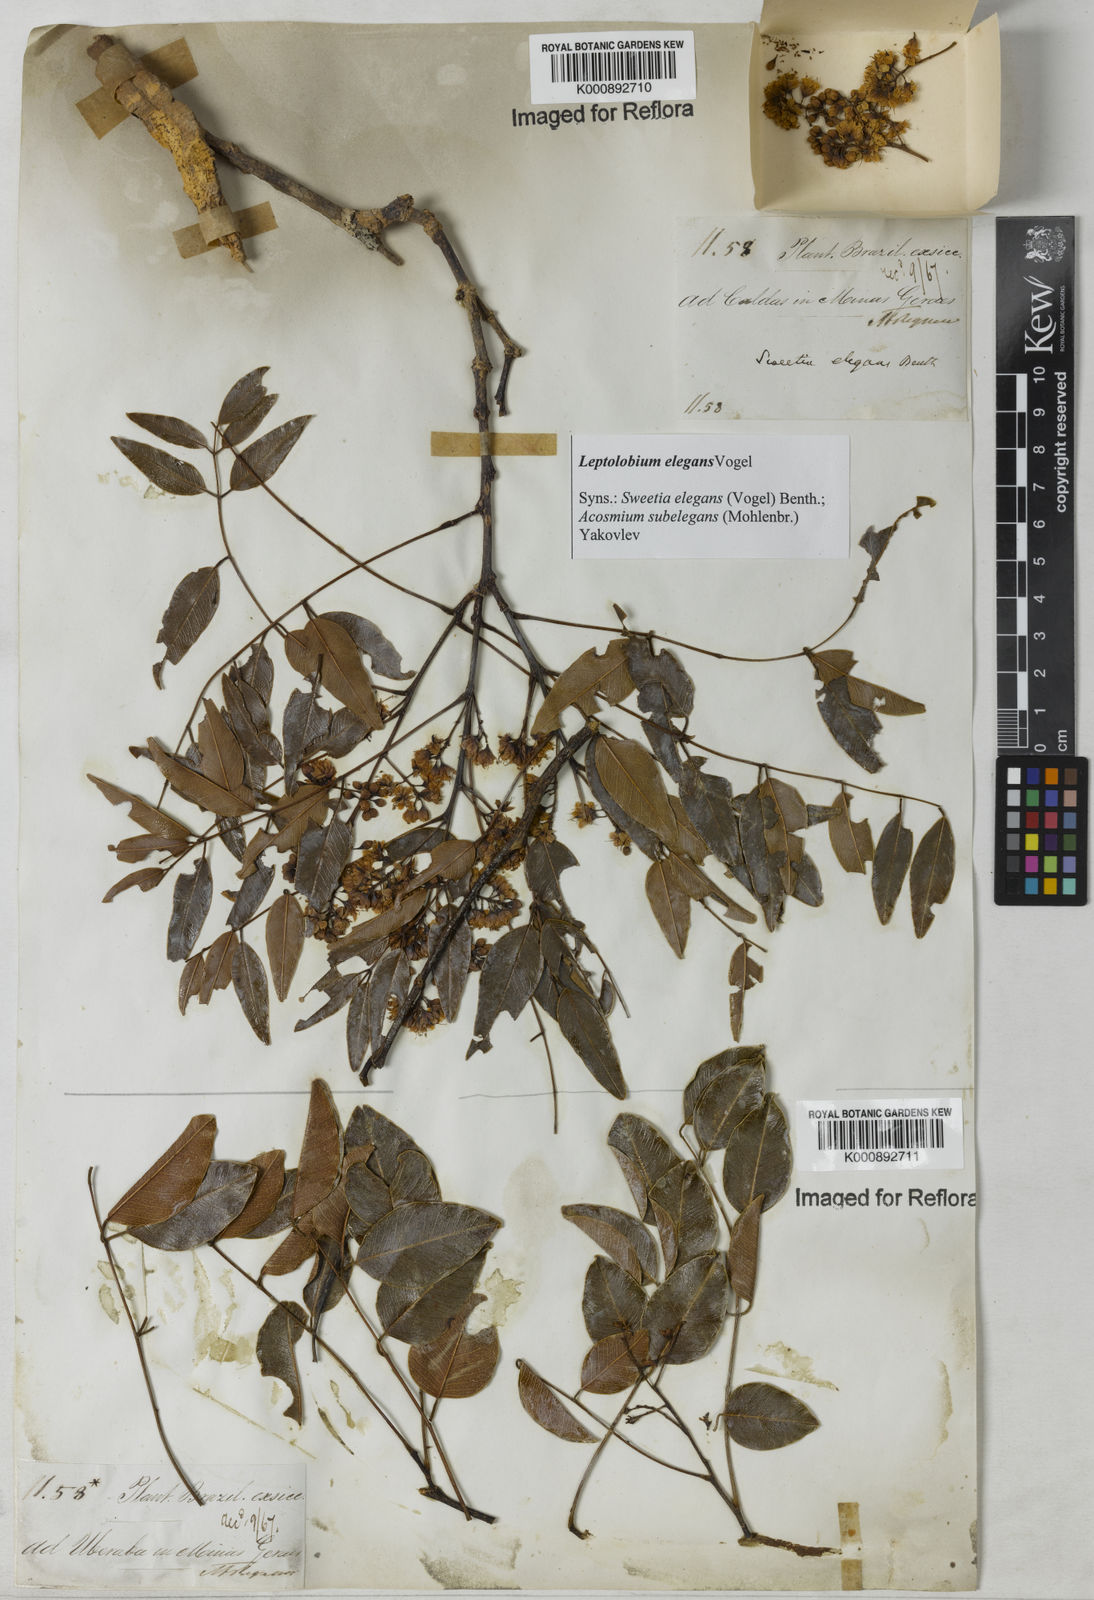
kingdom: Plantae
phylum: Tracheophyta
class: Magnoliopsida
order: Fabales
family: Fabaceae
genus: Leptolobium
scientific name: Leptolobium elegans
